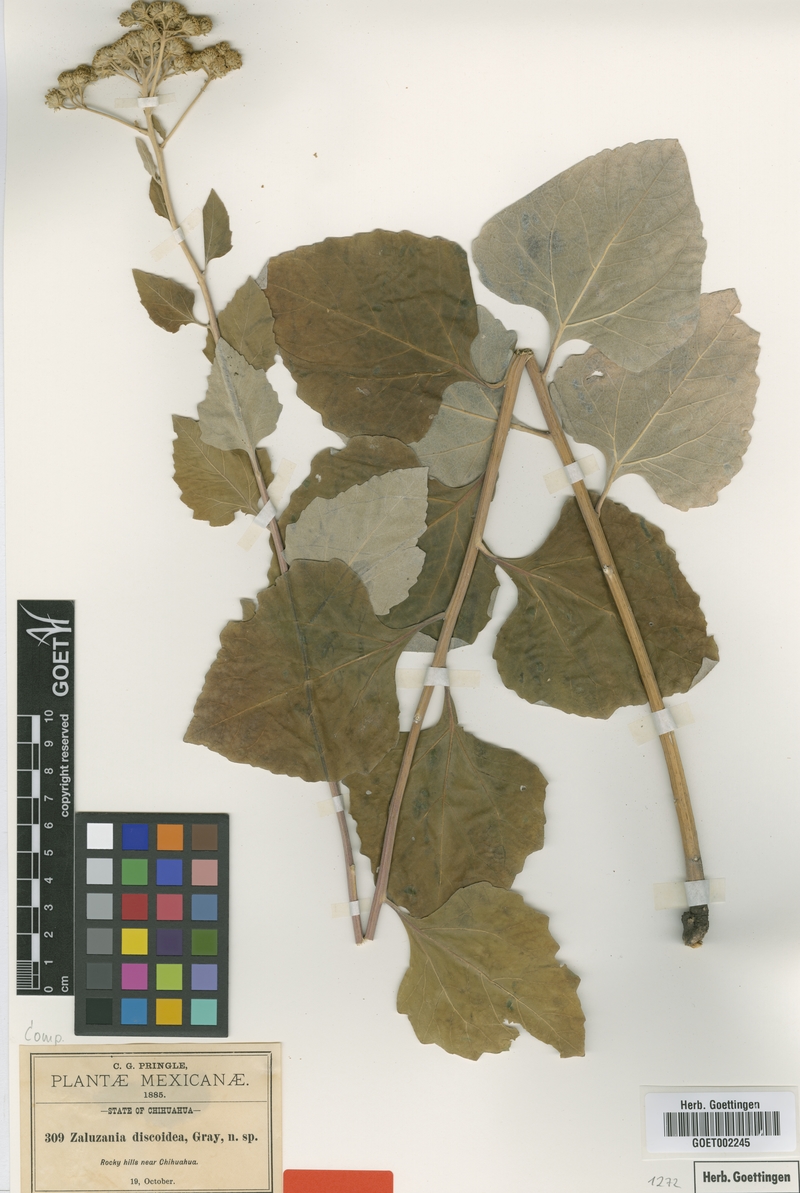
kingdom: Plantae
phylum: Tracheophyta
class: Magnoliopsida
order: Asterales
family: Asteraceae
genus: Zaluzania
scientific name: Zaluzania discoidea
